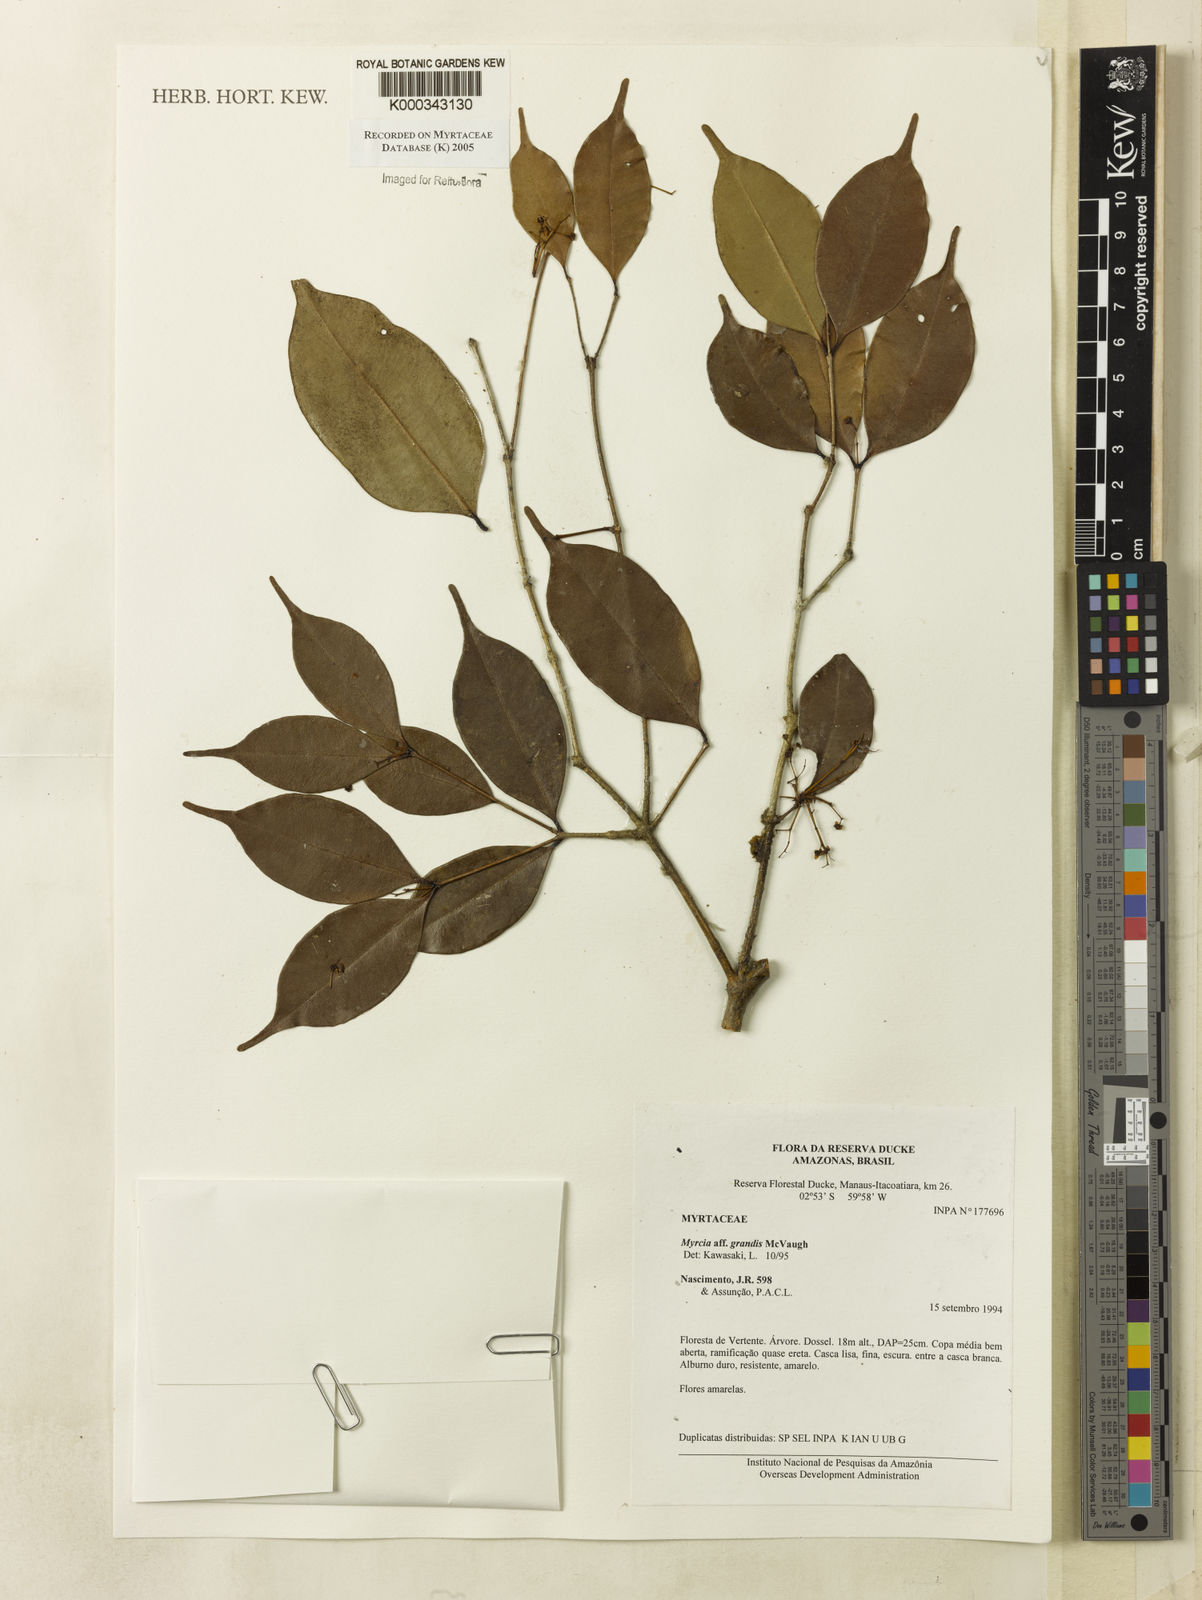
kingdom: Plantae
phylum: Tracheophyta
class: Magnoliopsida
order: Myrtales
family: Myrtaceae
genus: Myrcia
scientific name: Myrcia grandis
